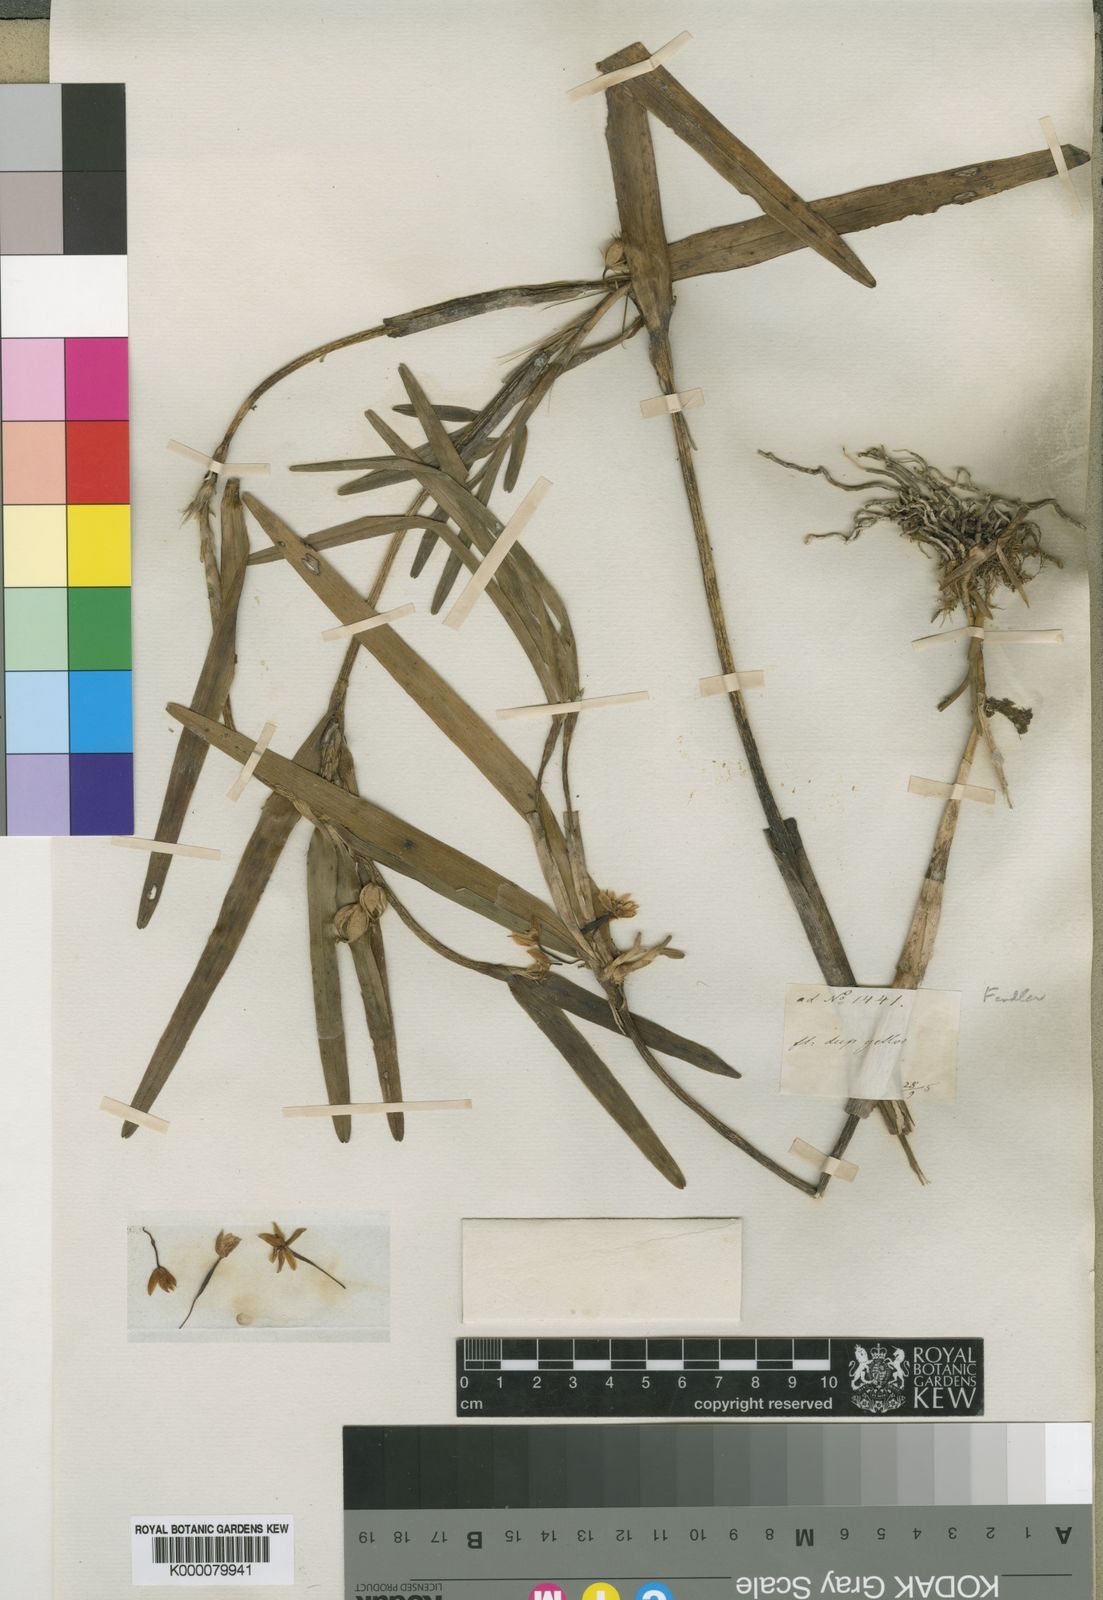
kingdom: Plantae
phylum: Tracheophyta
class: Liliopsida
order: Asparagales
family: Orchidaceae
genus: Scaphyglottis
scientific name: Scaphyglottis
